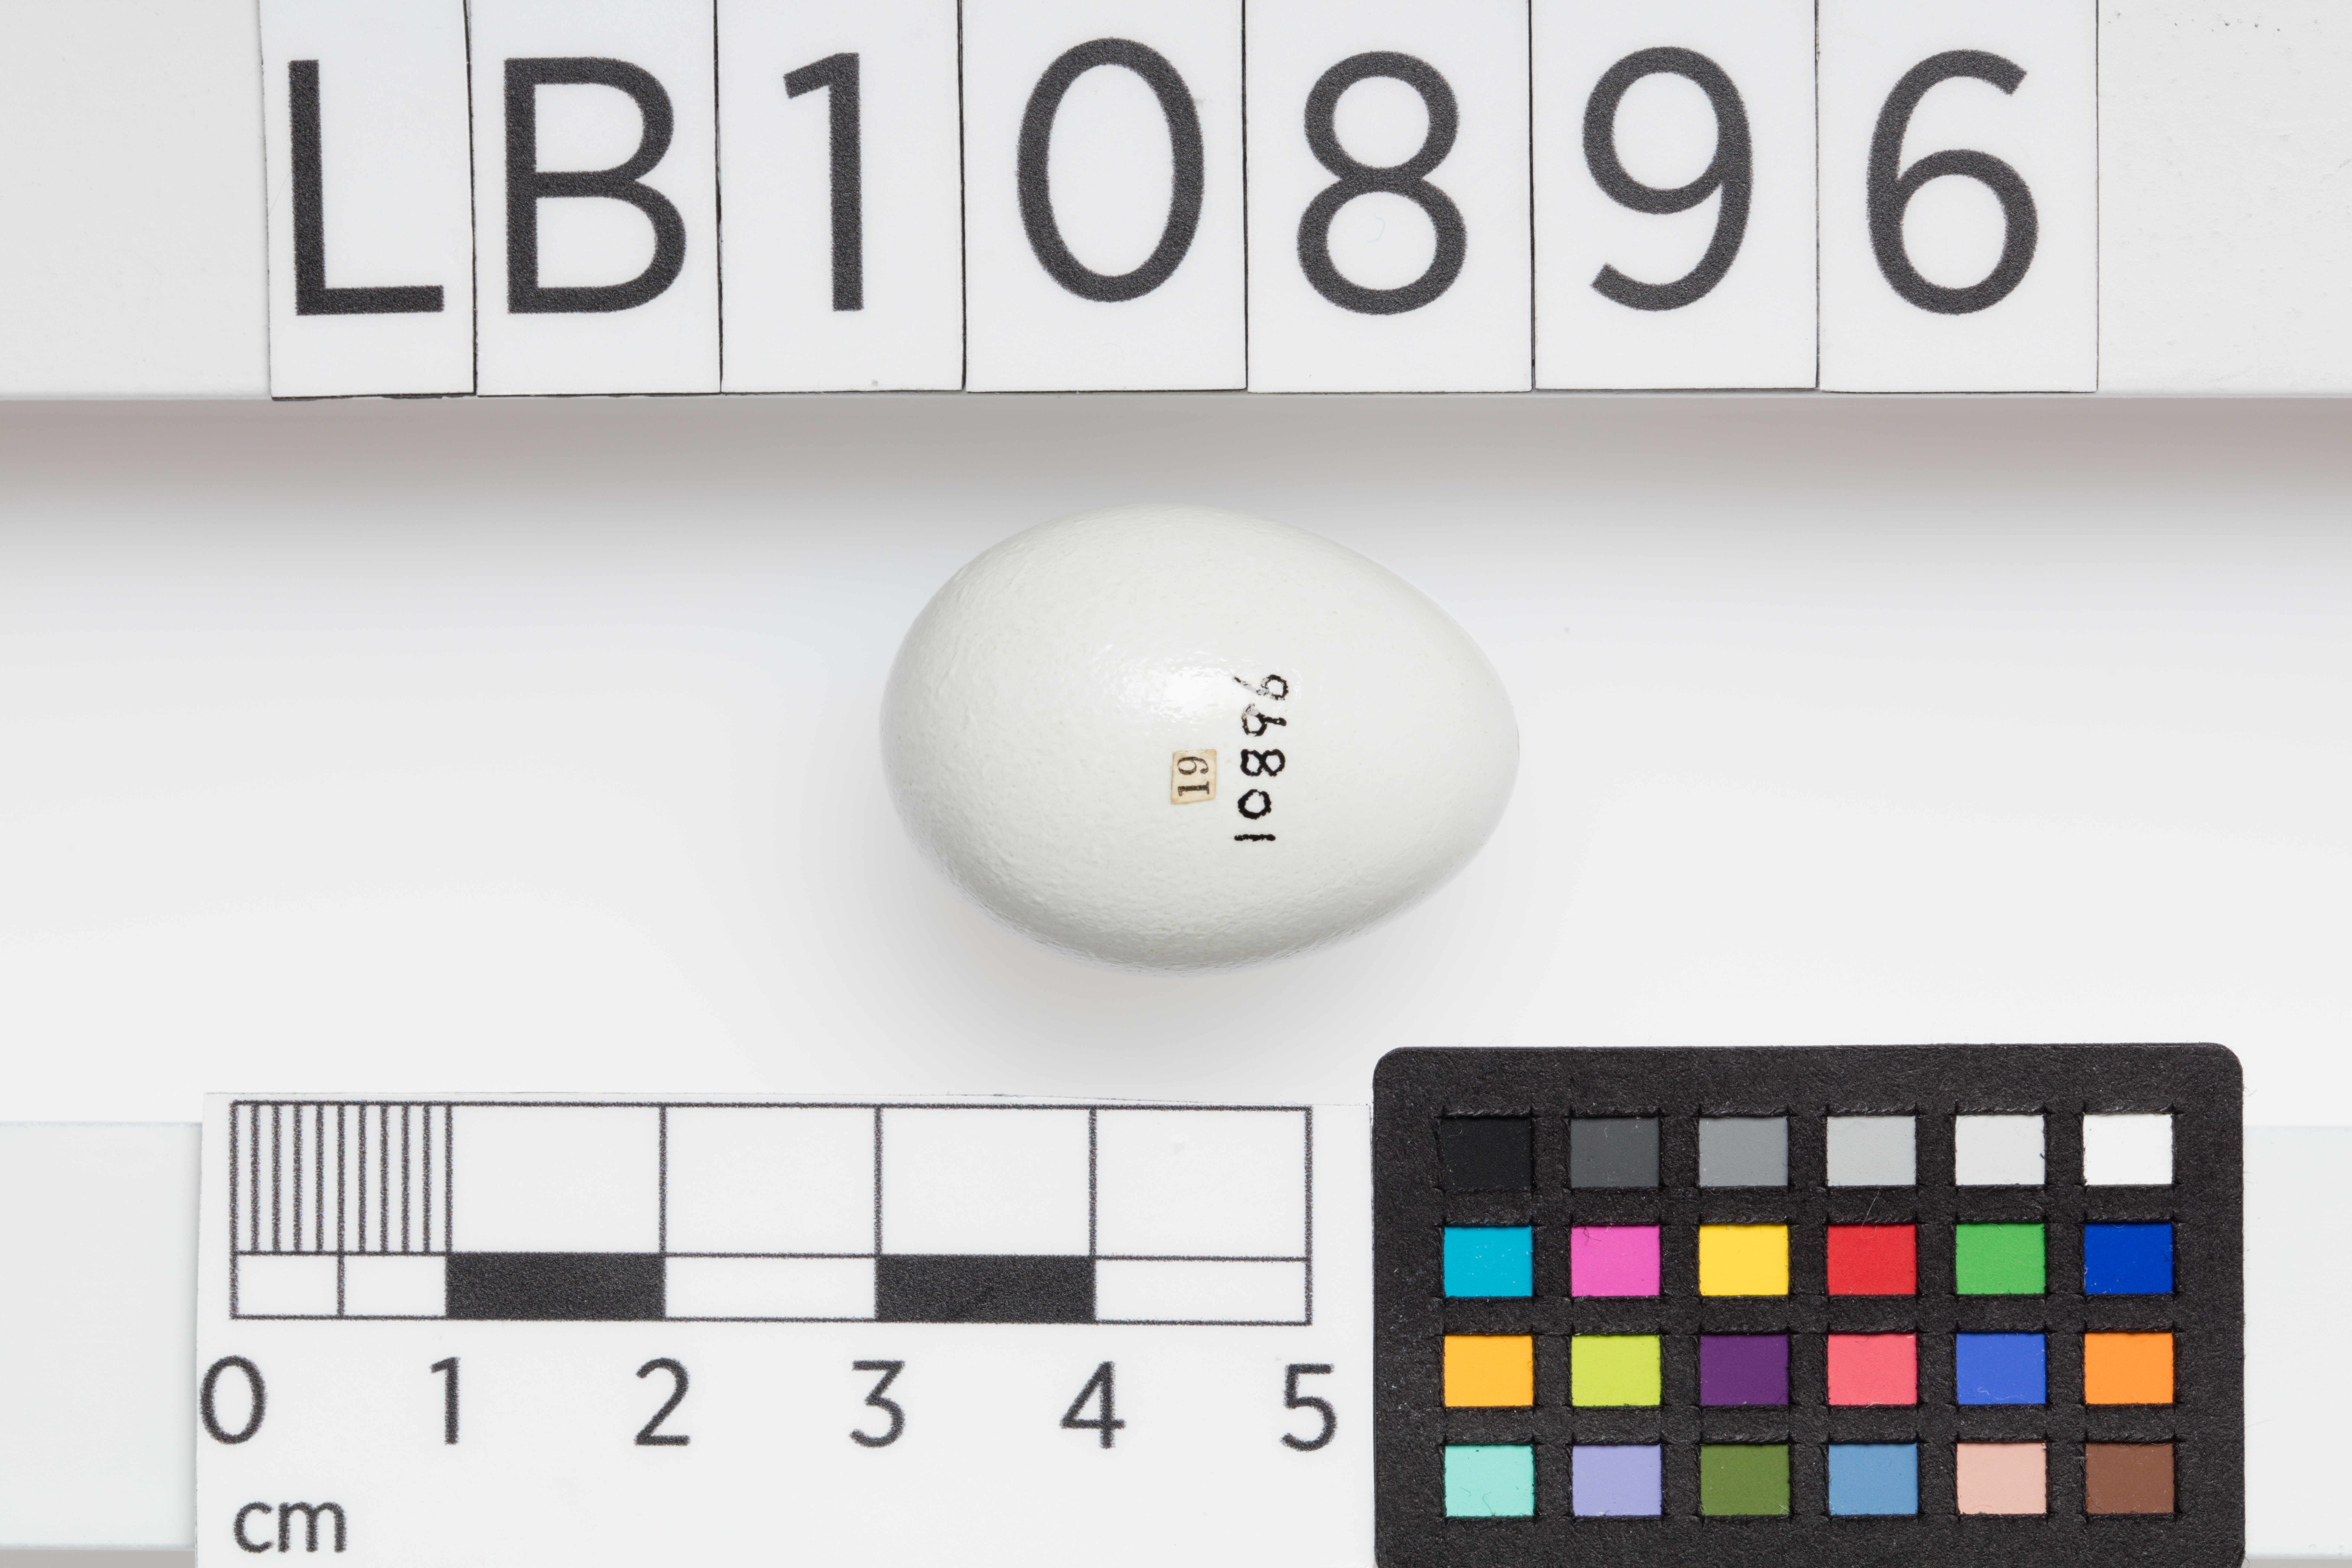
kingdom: Animalia
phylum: Chordata
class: Aves
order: Passeriformes
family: Sturnidae
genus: Sturnus
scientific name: Sturnus vulgaris
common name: Common starling
